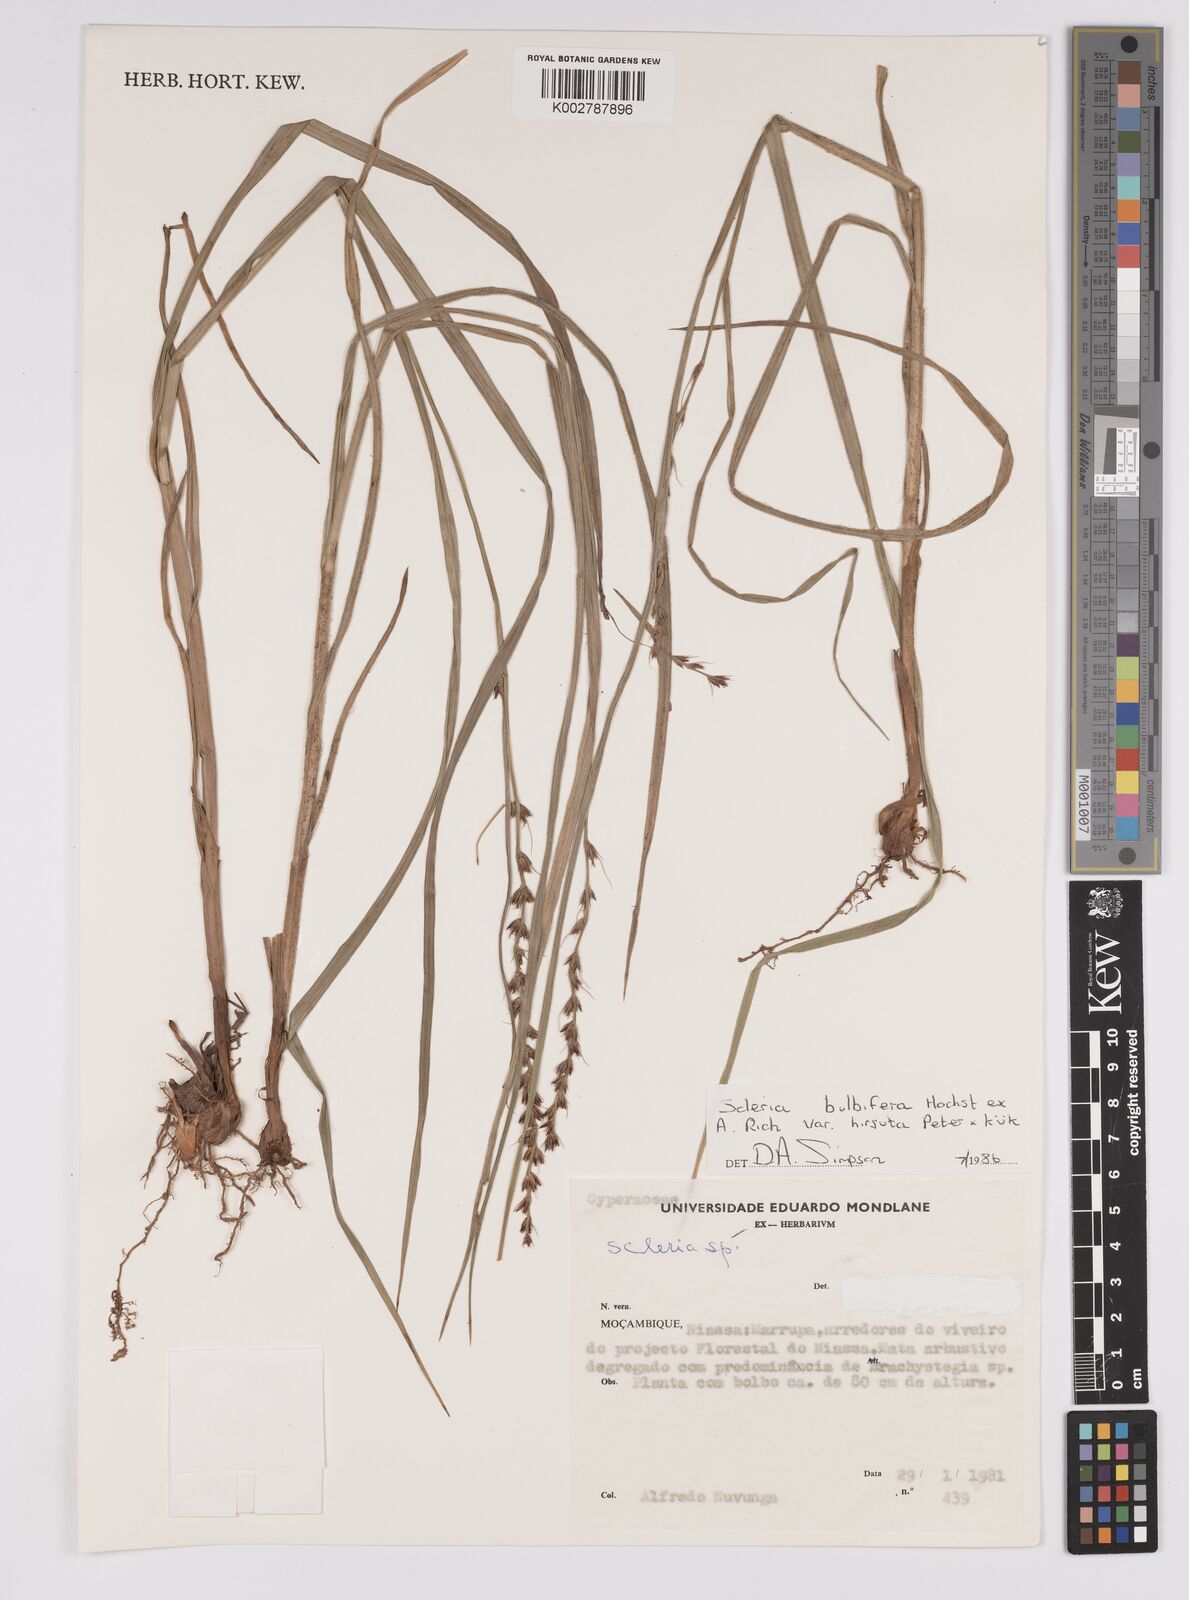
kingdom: Plantae
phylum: Tracheophyta
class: Liliopsida
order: Poales
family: Cyperaceae
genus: Scleria
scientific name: Scleria bulbifera
